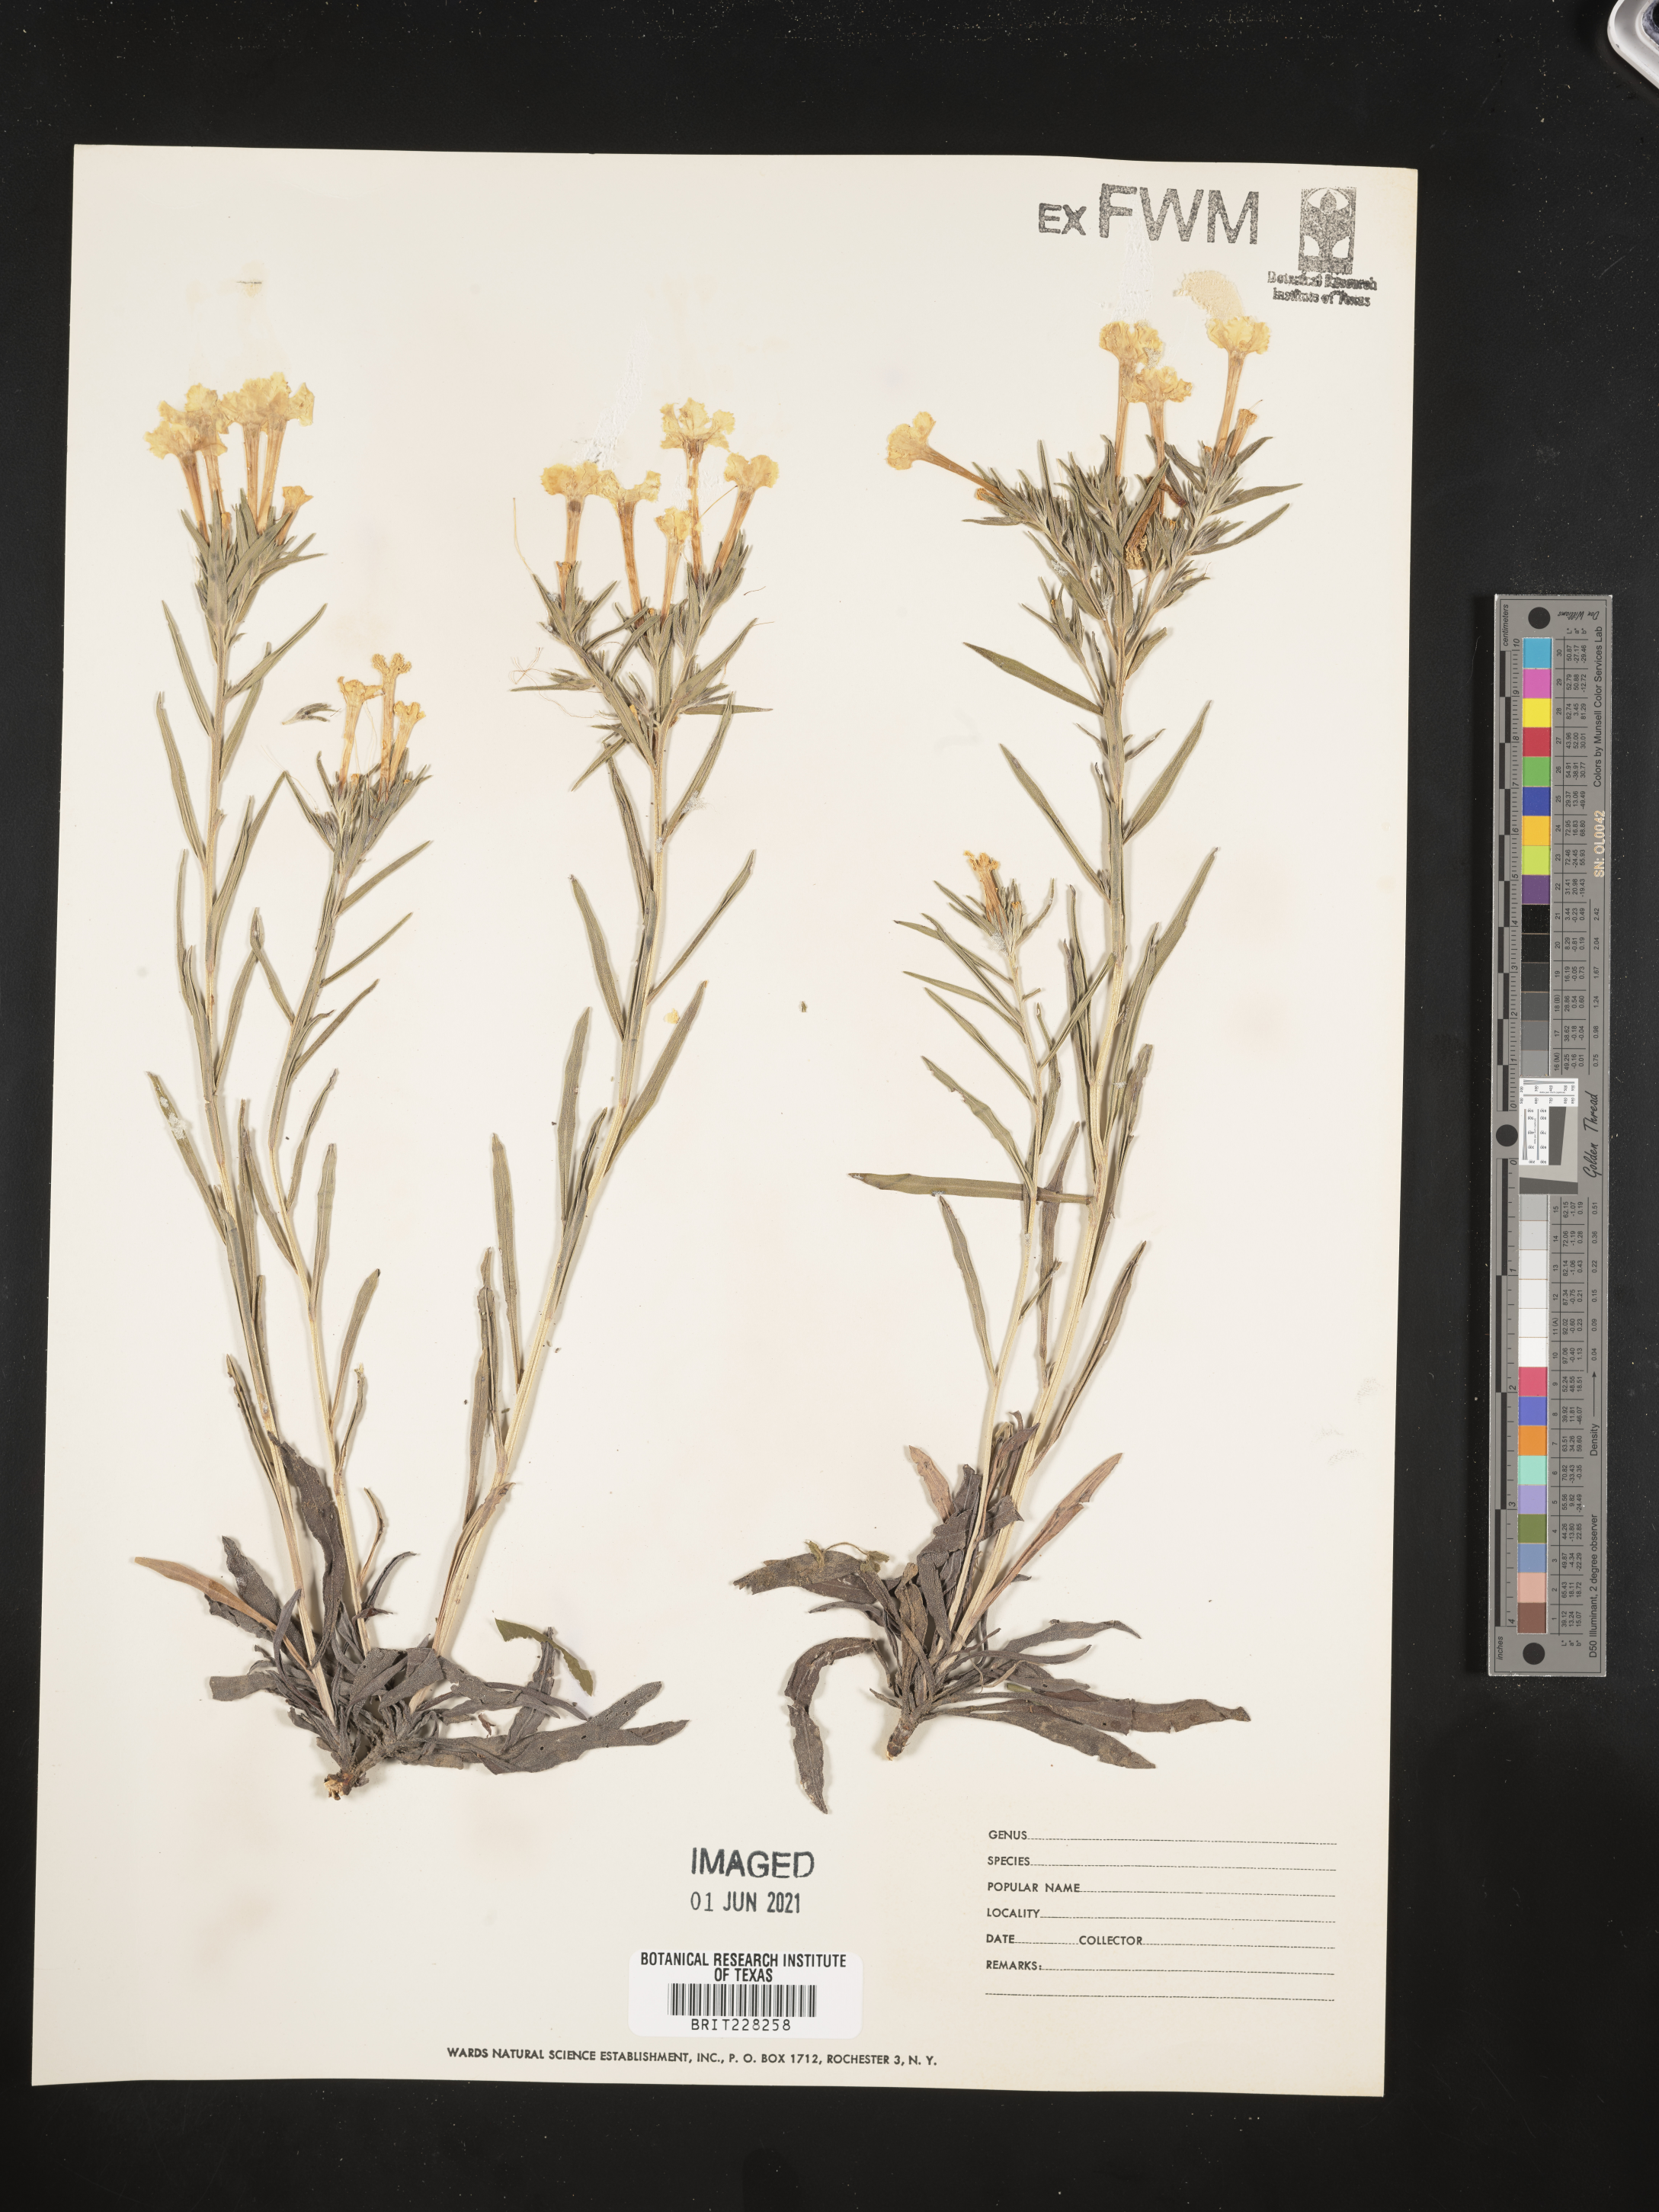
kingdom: Plantae
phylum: Tracheophyta
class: Magnoliopsida
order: Boraginales
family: Boraginaceae
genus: Lithospermum
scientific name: Lithospermum incisum
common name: Fringed gromwell
